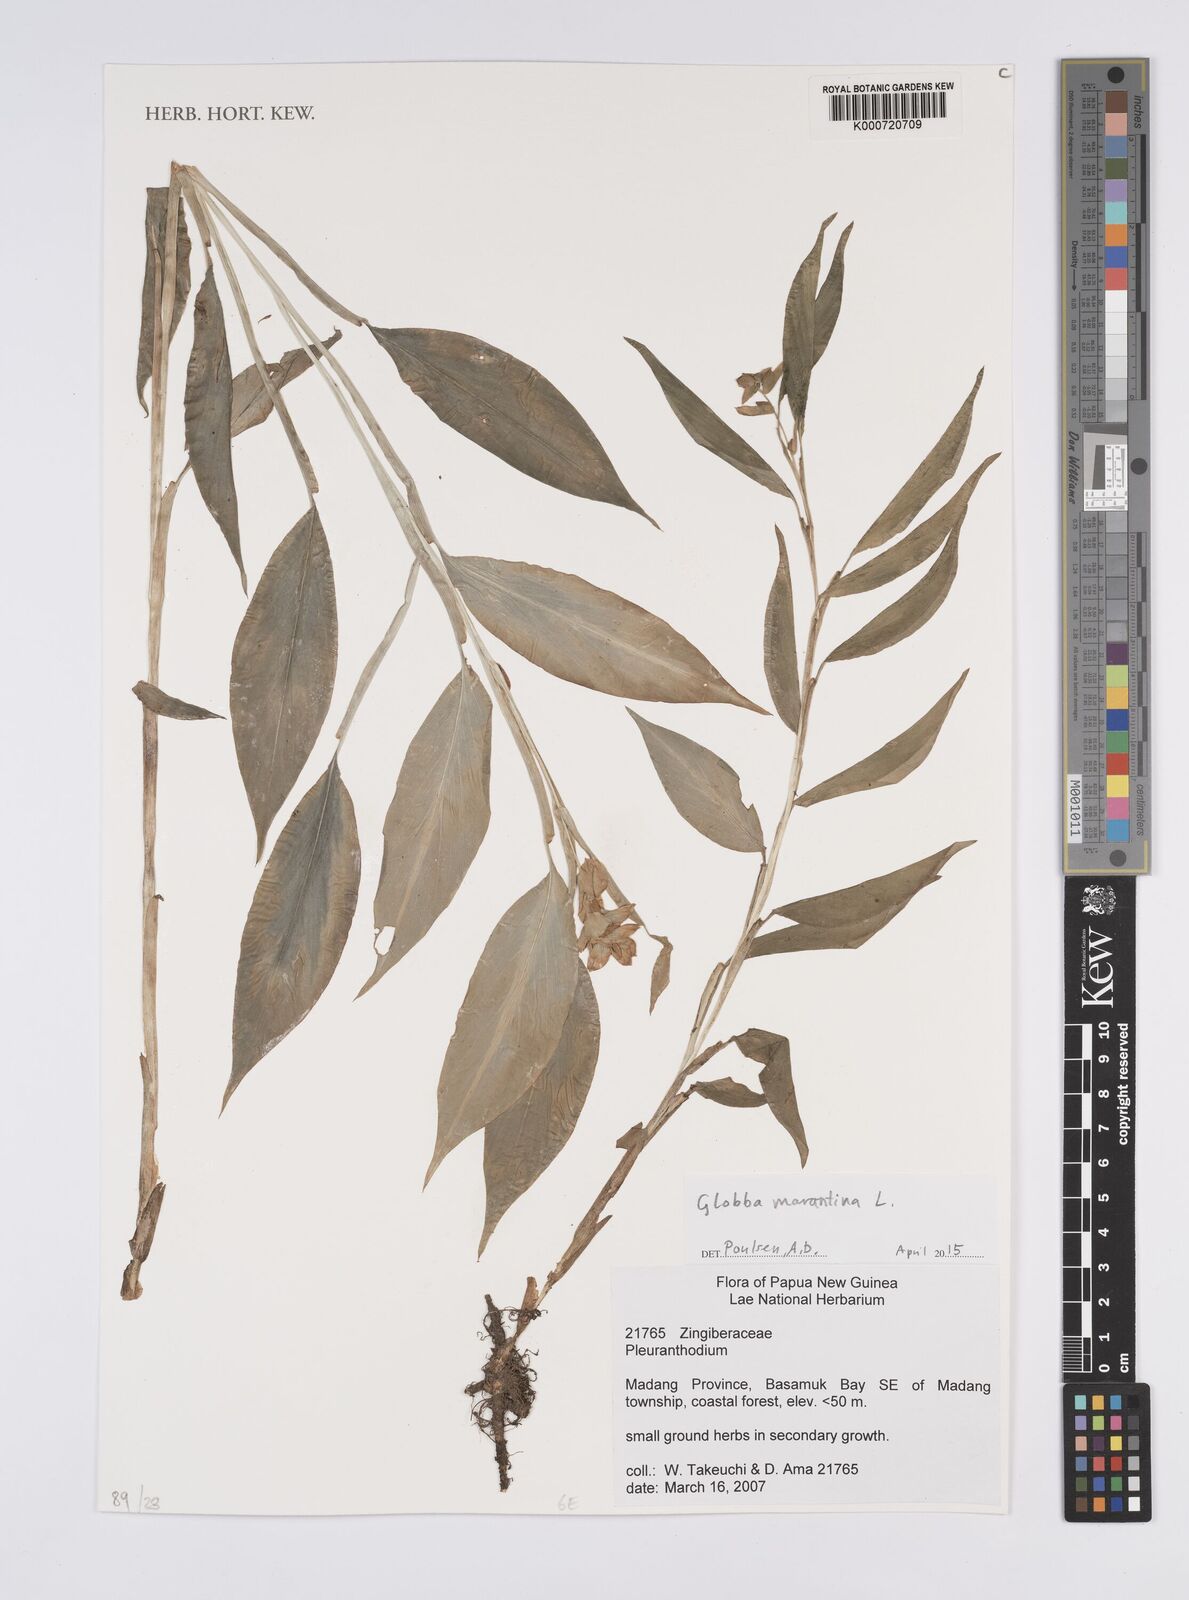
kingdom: Plantae
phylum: Tracheophyta
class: Liliopsida
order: Zingiberales
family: Zingiberaceae
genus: Globba
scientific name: Globba marantina
